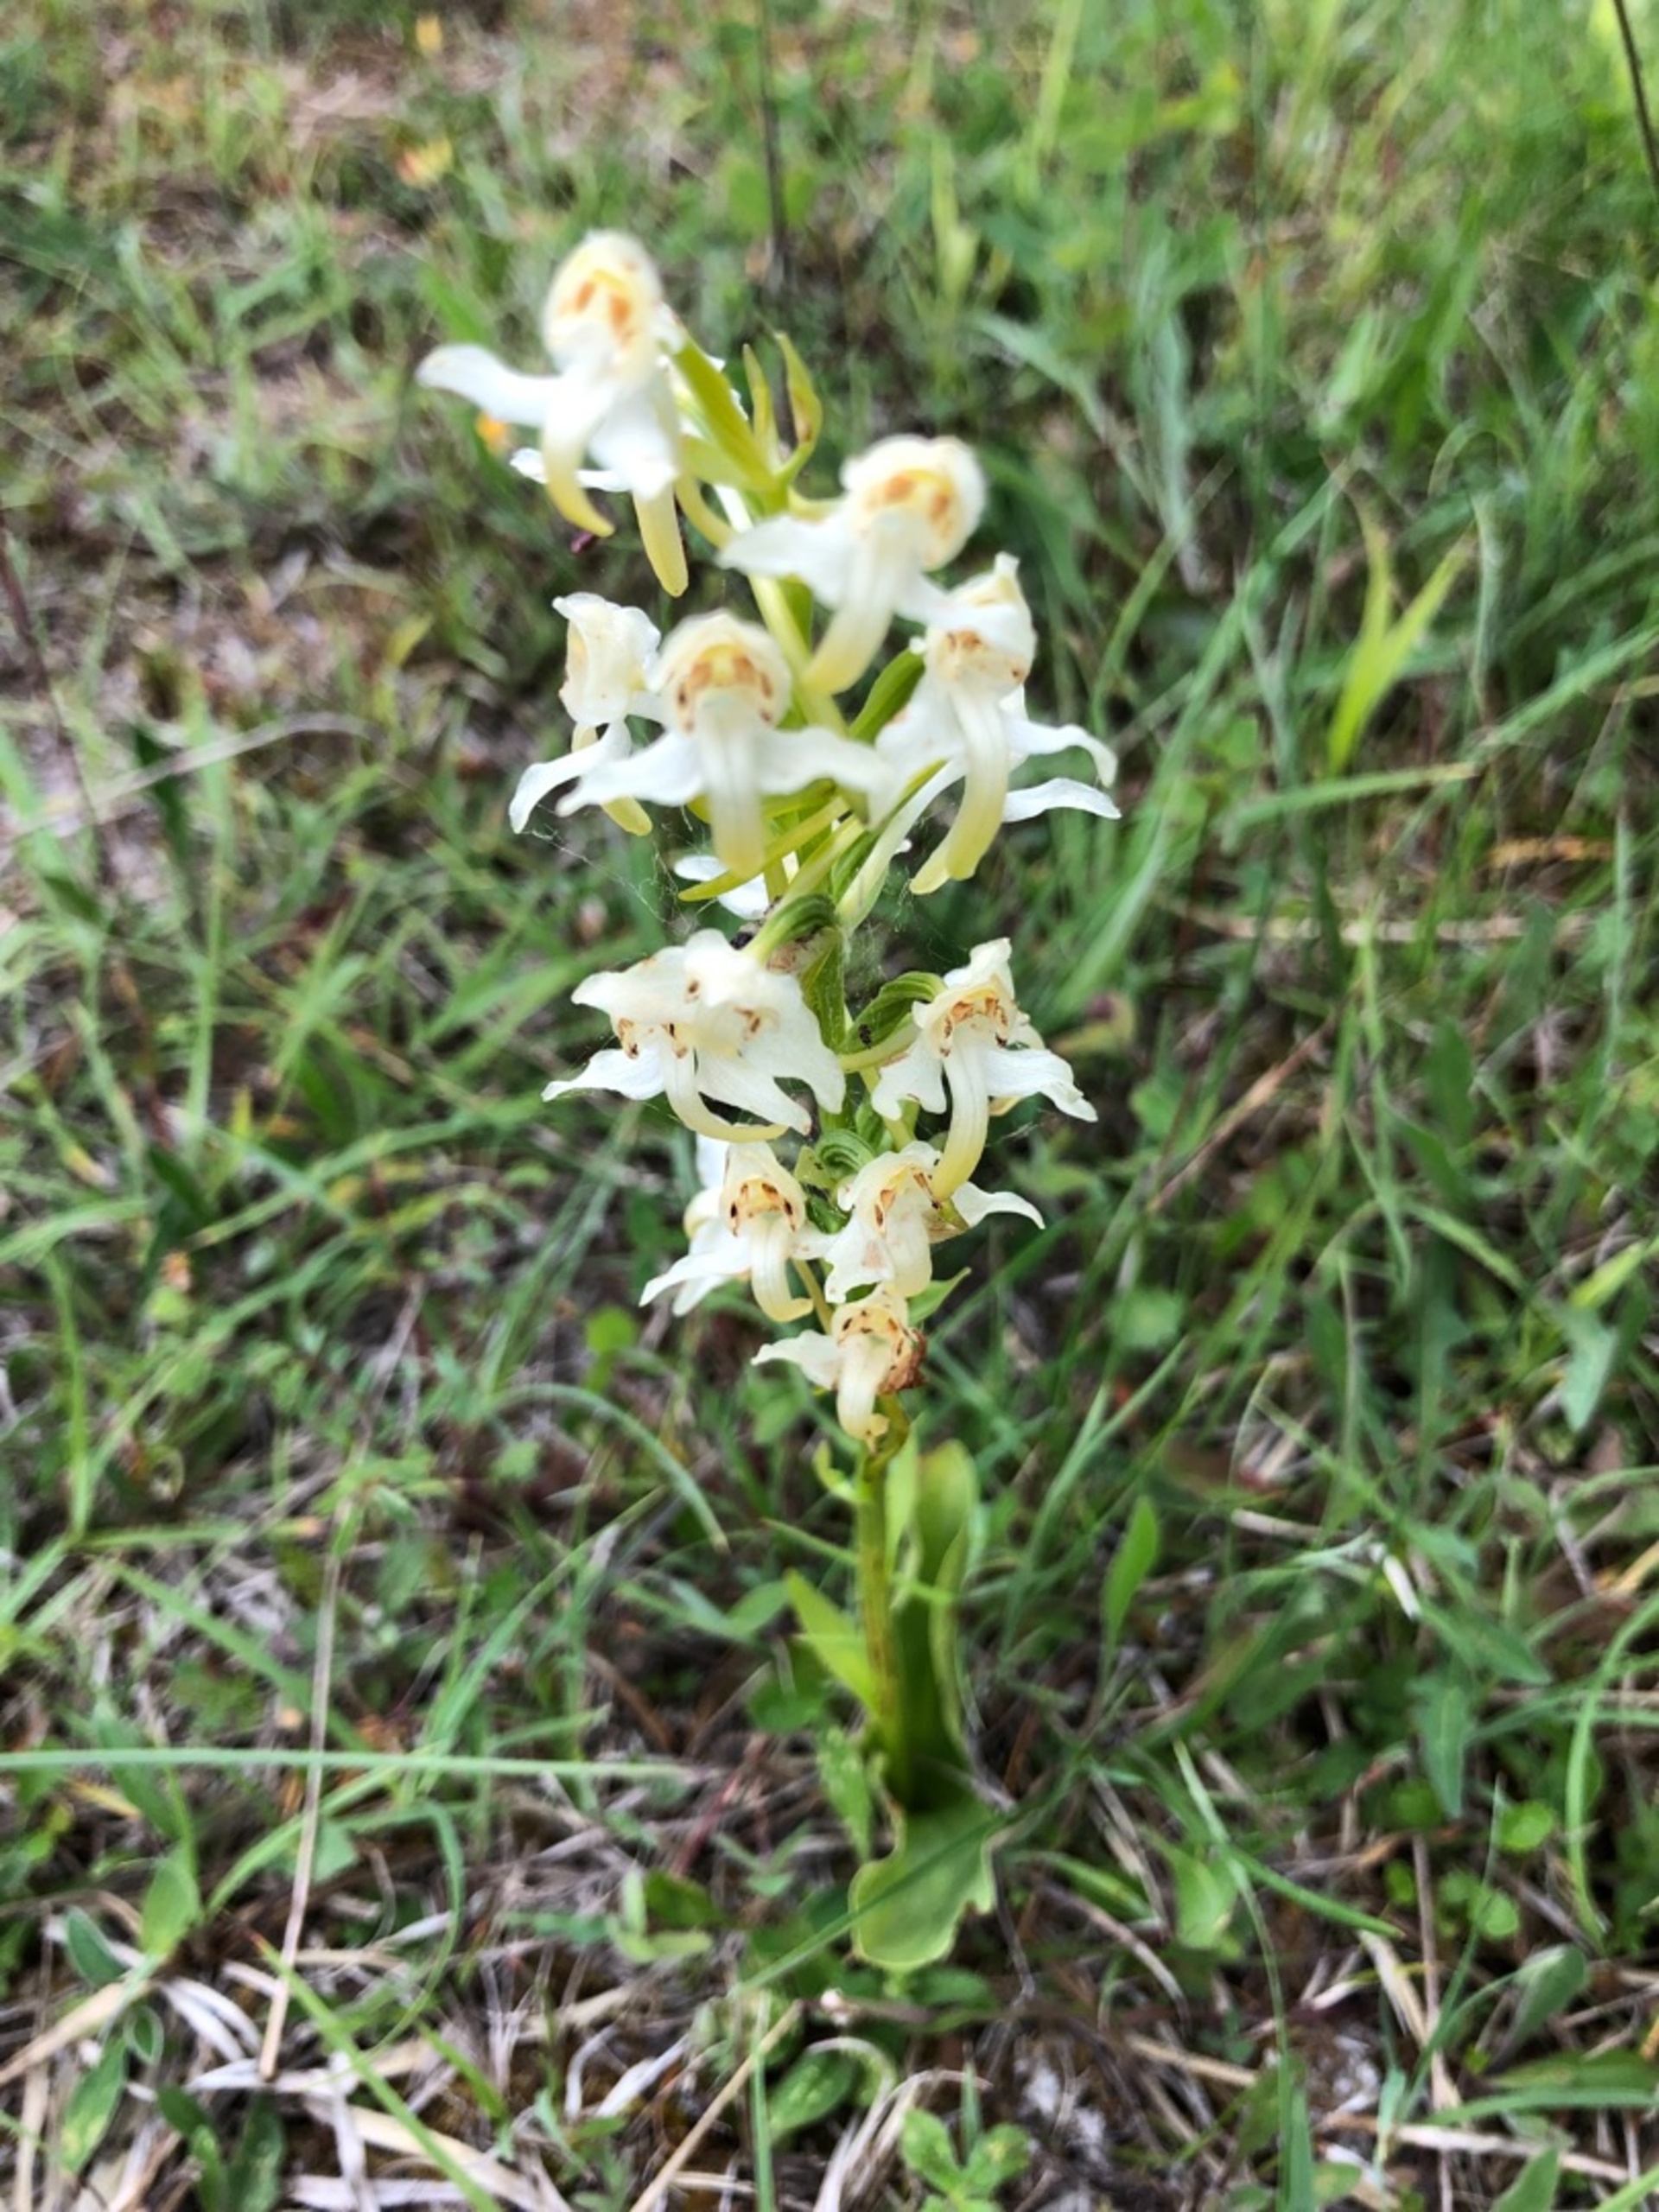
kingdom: Plantae
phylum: Tracheophyta
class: Liliopsida
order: Asparagales
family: Orchidaceae
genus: Platanthera
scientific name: Platanthera chlorantha
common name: Skov-gøgelilje
